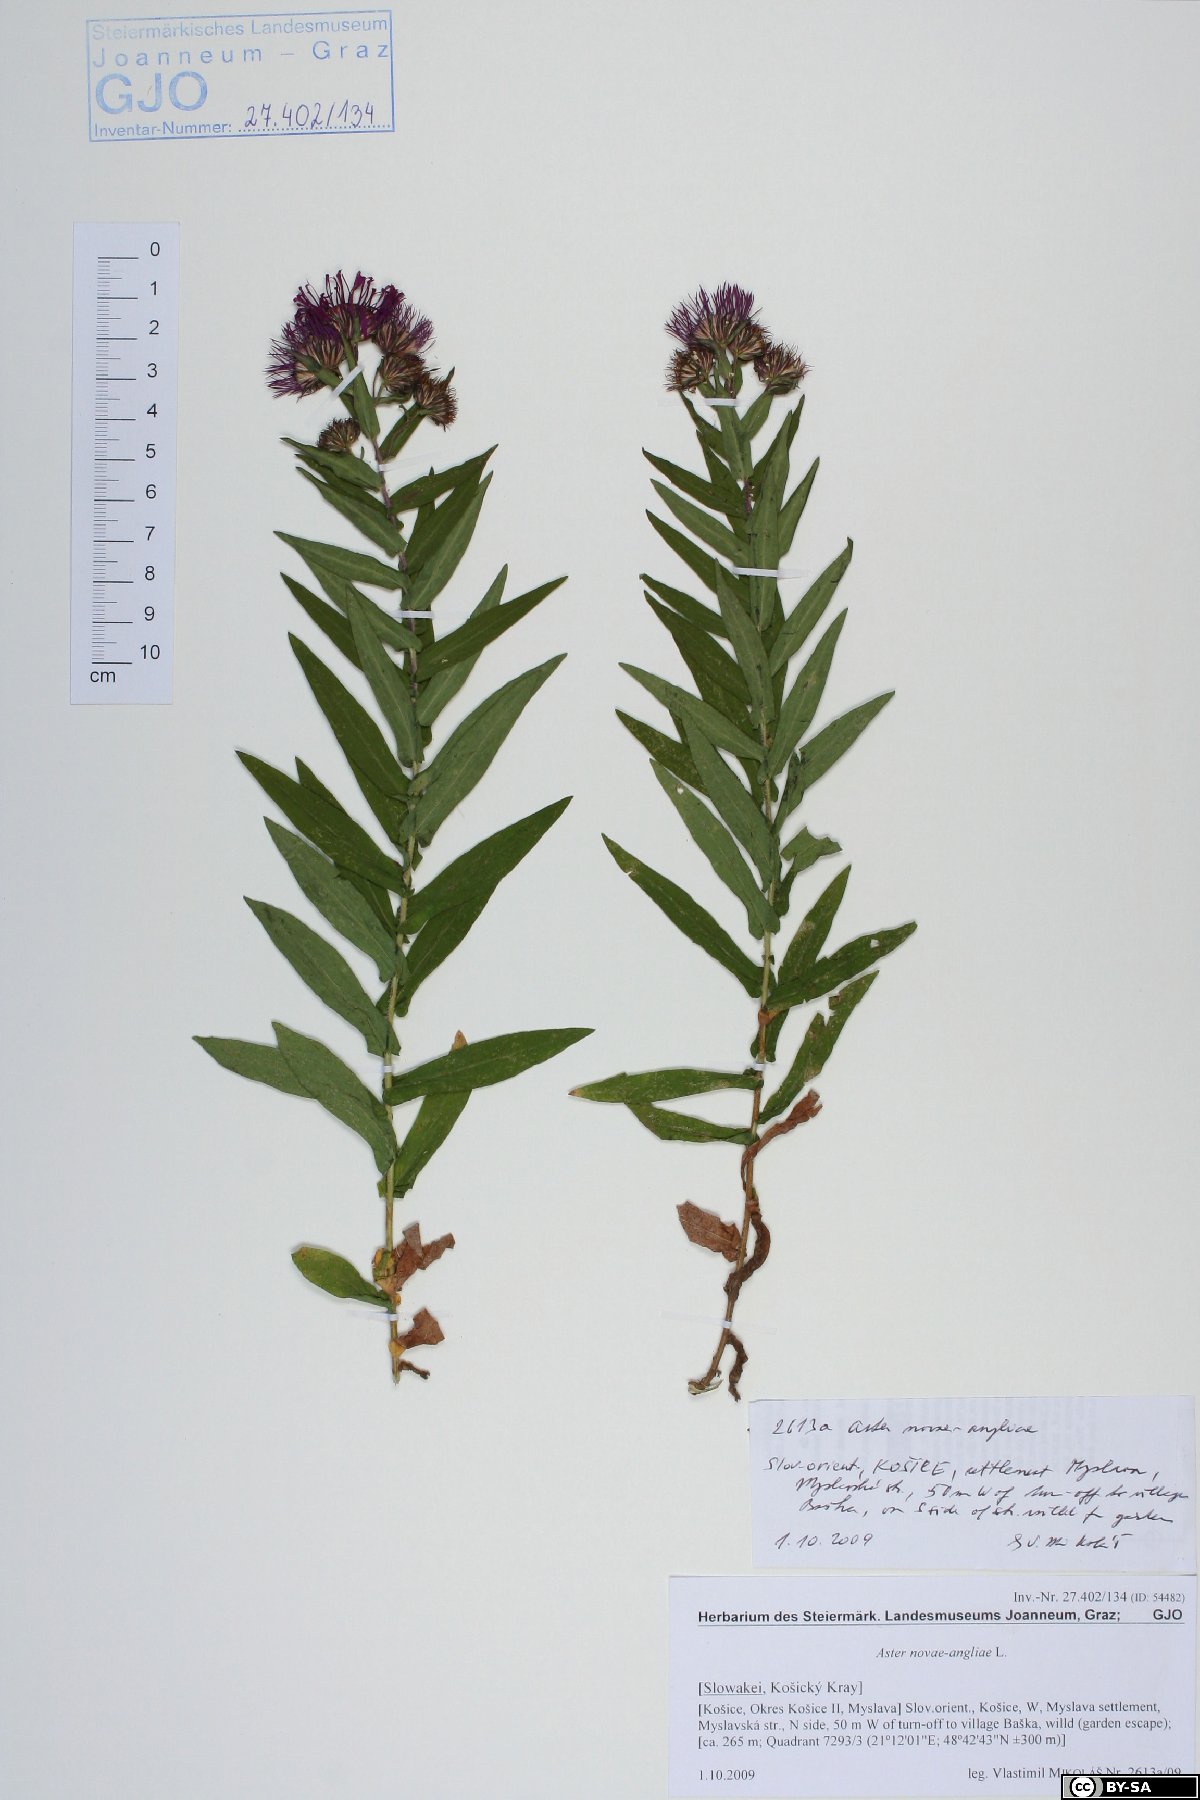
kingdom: Plantae
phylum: Tracheophyta
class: Magnoliopsida
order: Asterales
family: Asteraceae
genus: Symphyotrichum
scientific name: Symphyotrichum novae-angliae
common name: Michaelmas daisy
